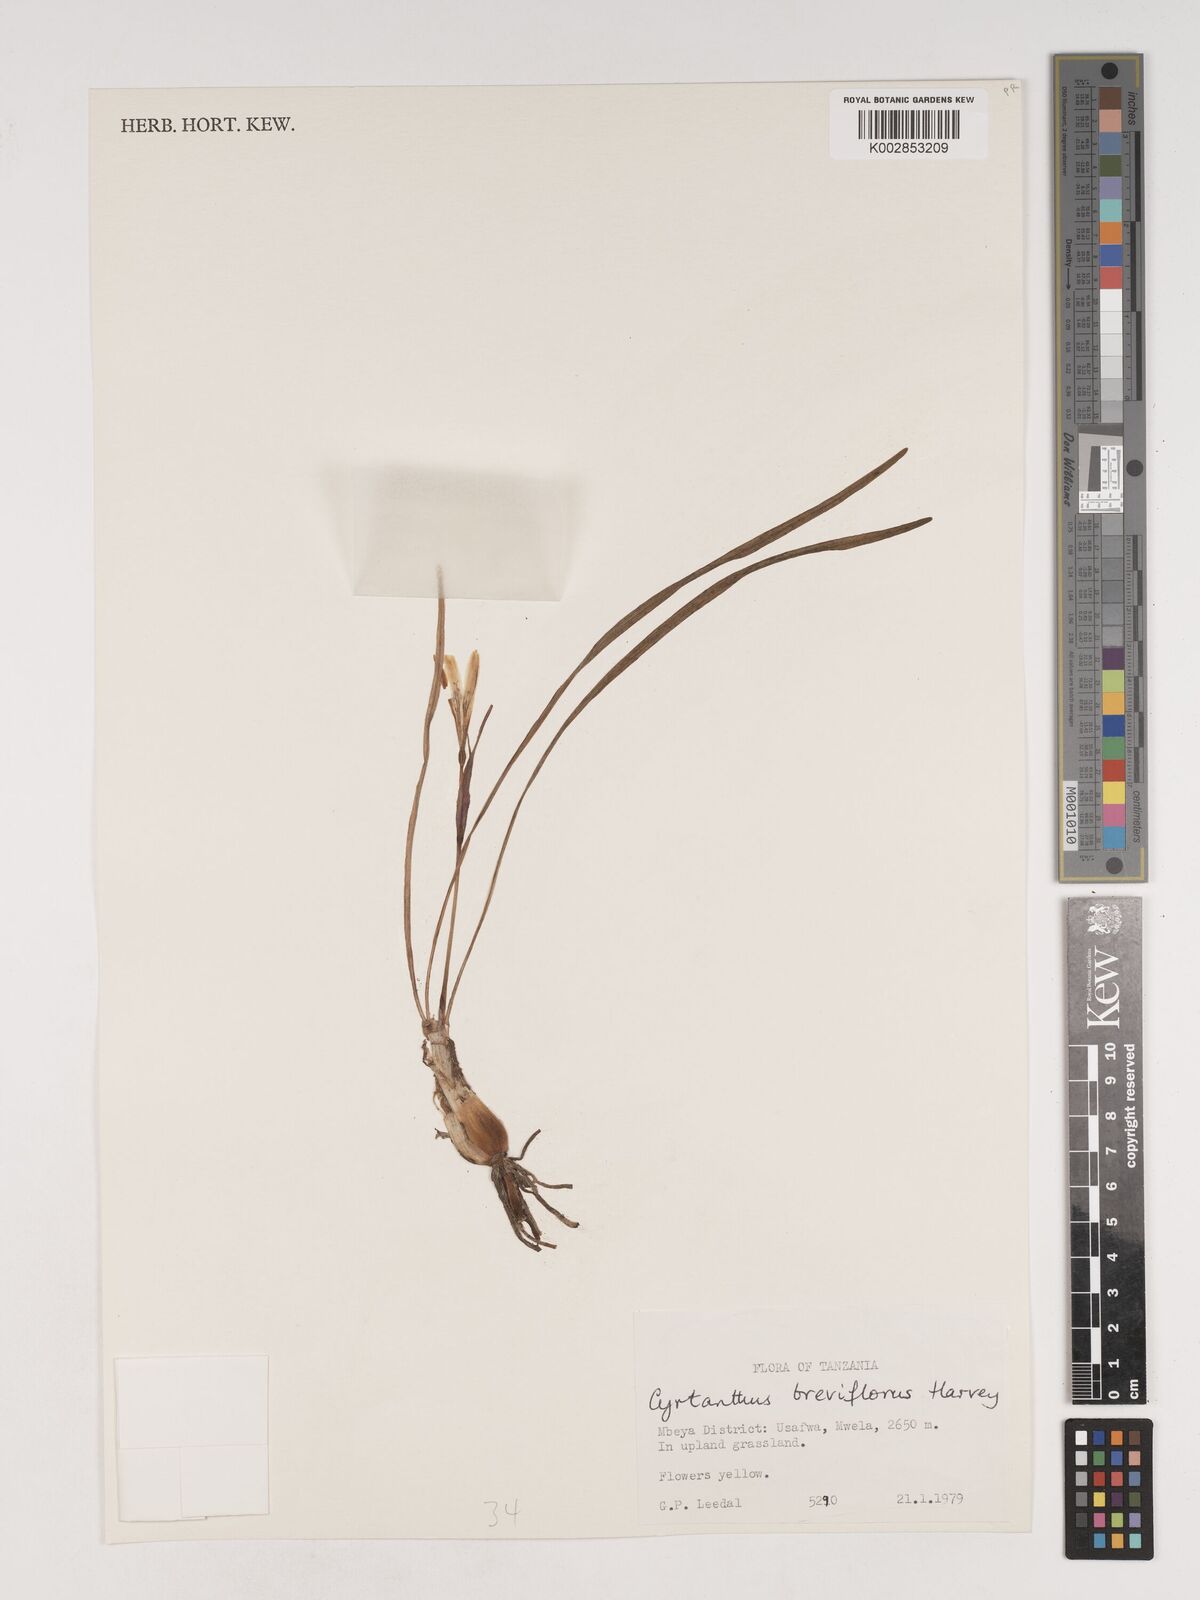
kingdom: Plantae
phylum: Tracheophyta
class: Liliopsida
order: Asparagales
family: Amaryllidaceae
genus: Cyrtanthus
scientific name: Cyrtanthus breviflorus
